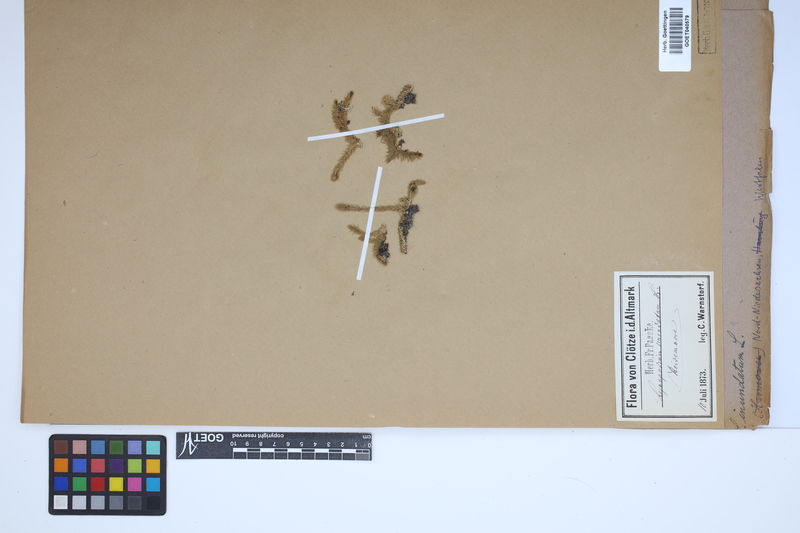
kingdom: Plantae
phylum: Tracheophyta
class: Lycopodiopsida
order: Lycopodiales
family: Lycopodiaceae
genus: Lycopodiella
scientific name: Lycopodiella inundata
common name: Marsh clubmoss
